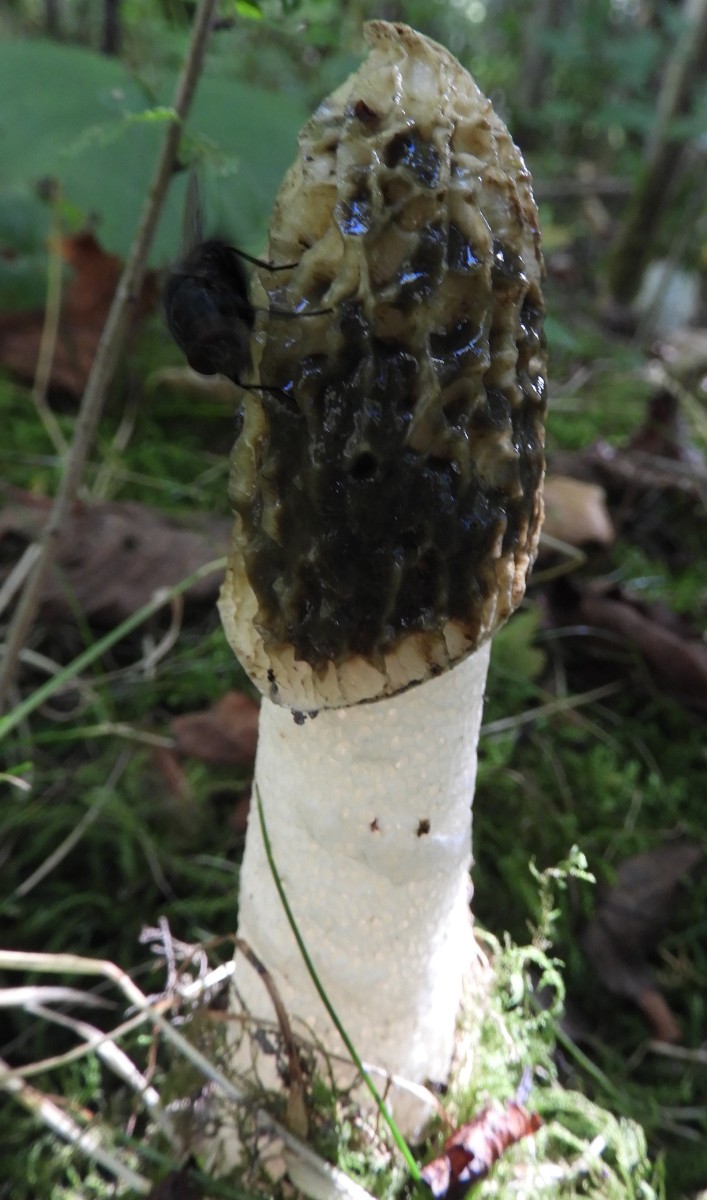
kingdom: Fungi
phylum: Basidiomycota
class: Agaricomycetes
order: Phallales
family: Phallaceae
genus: Phallus
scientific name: Phallus impudicus
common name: almindelig stinksvamp
